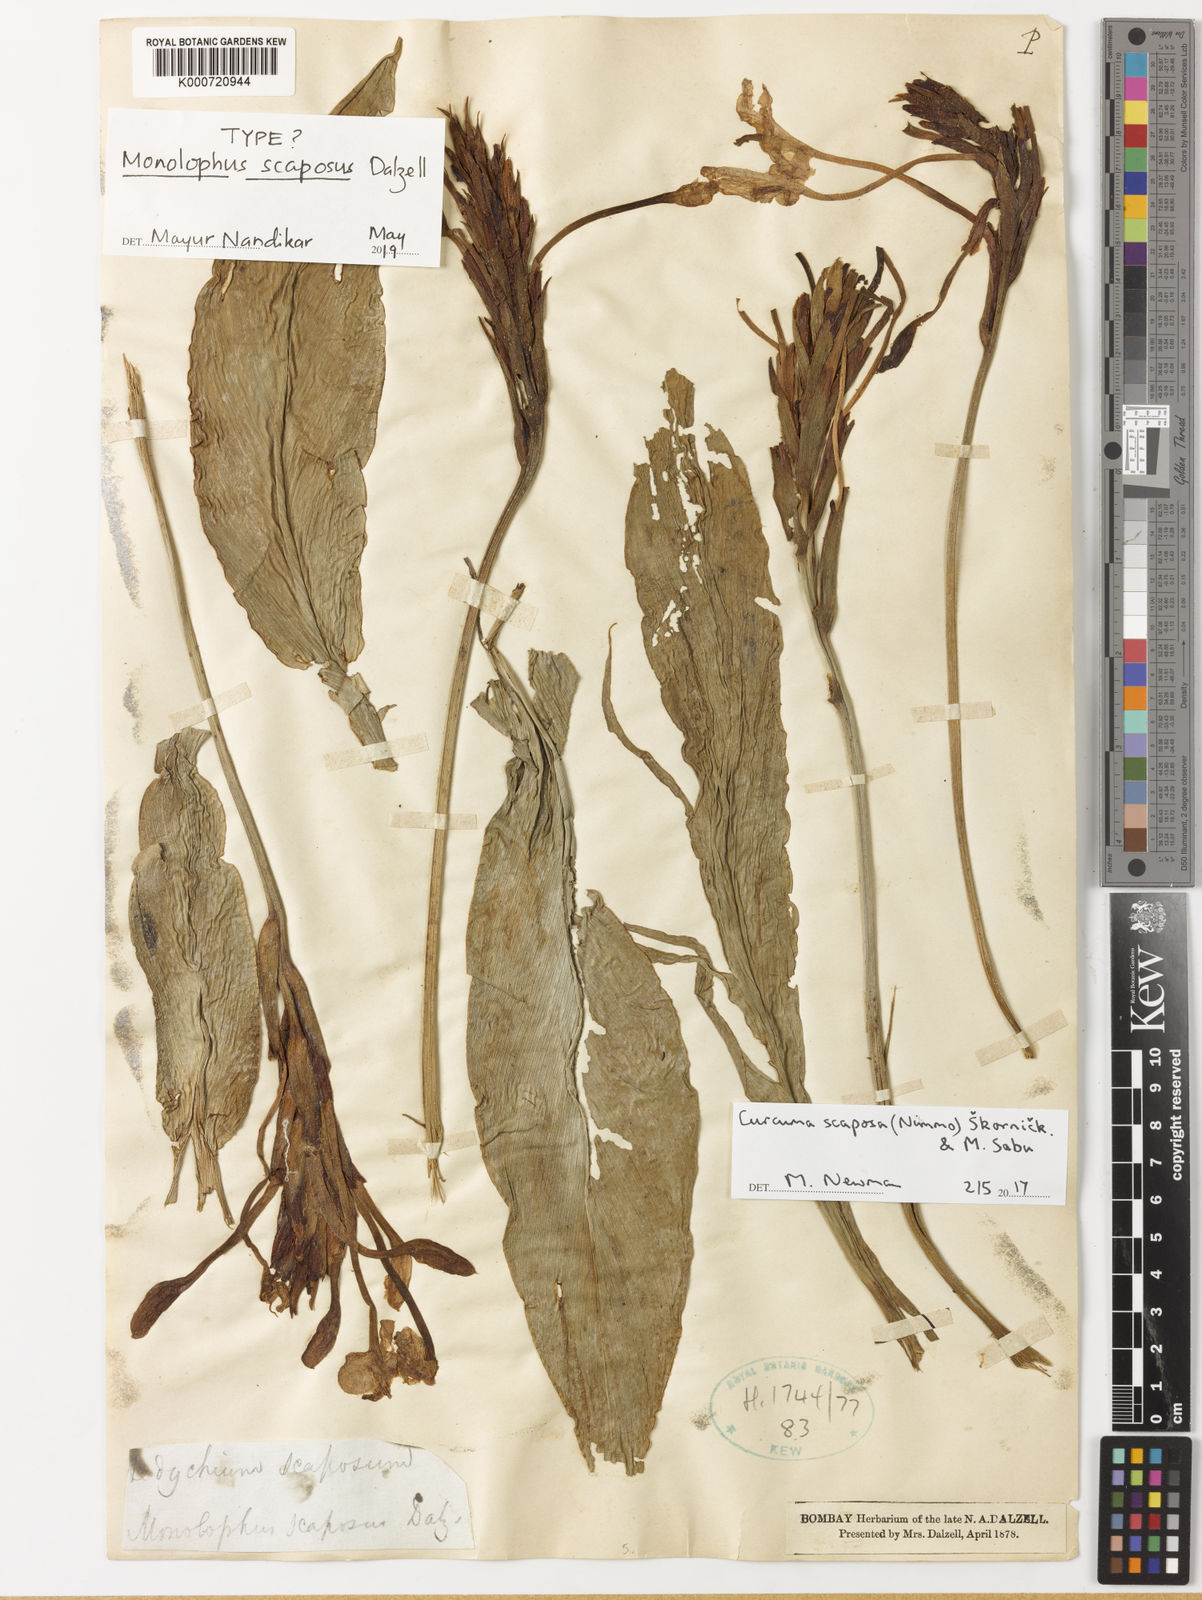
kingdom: Plantae
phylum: Tracheophyta
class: Liliopsida
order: Zingiberales
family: Zingiberaceae
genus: Curcuma
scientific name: Curcuma
